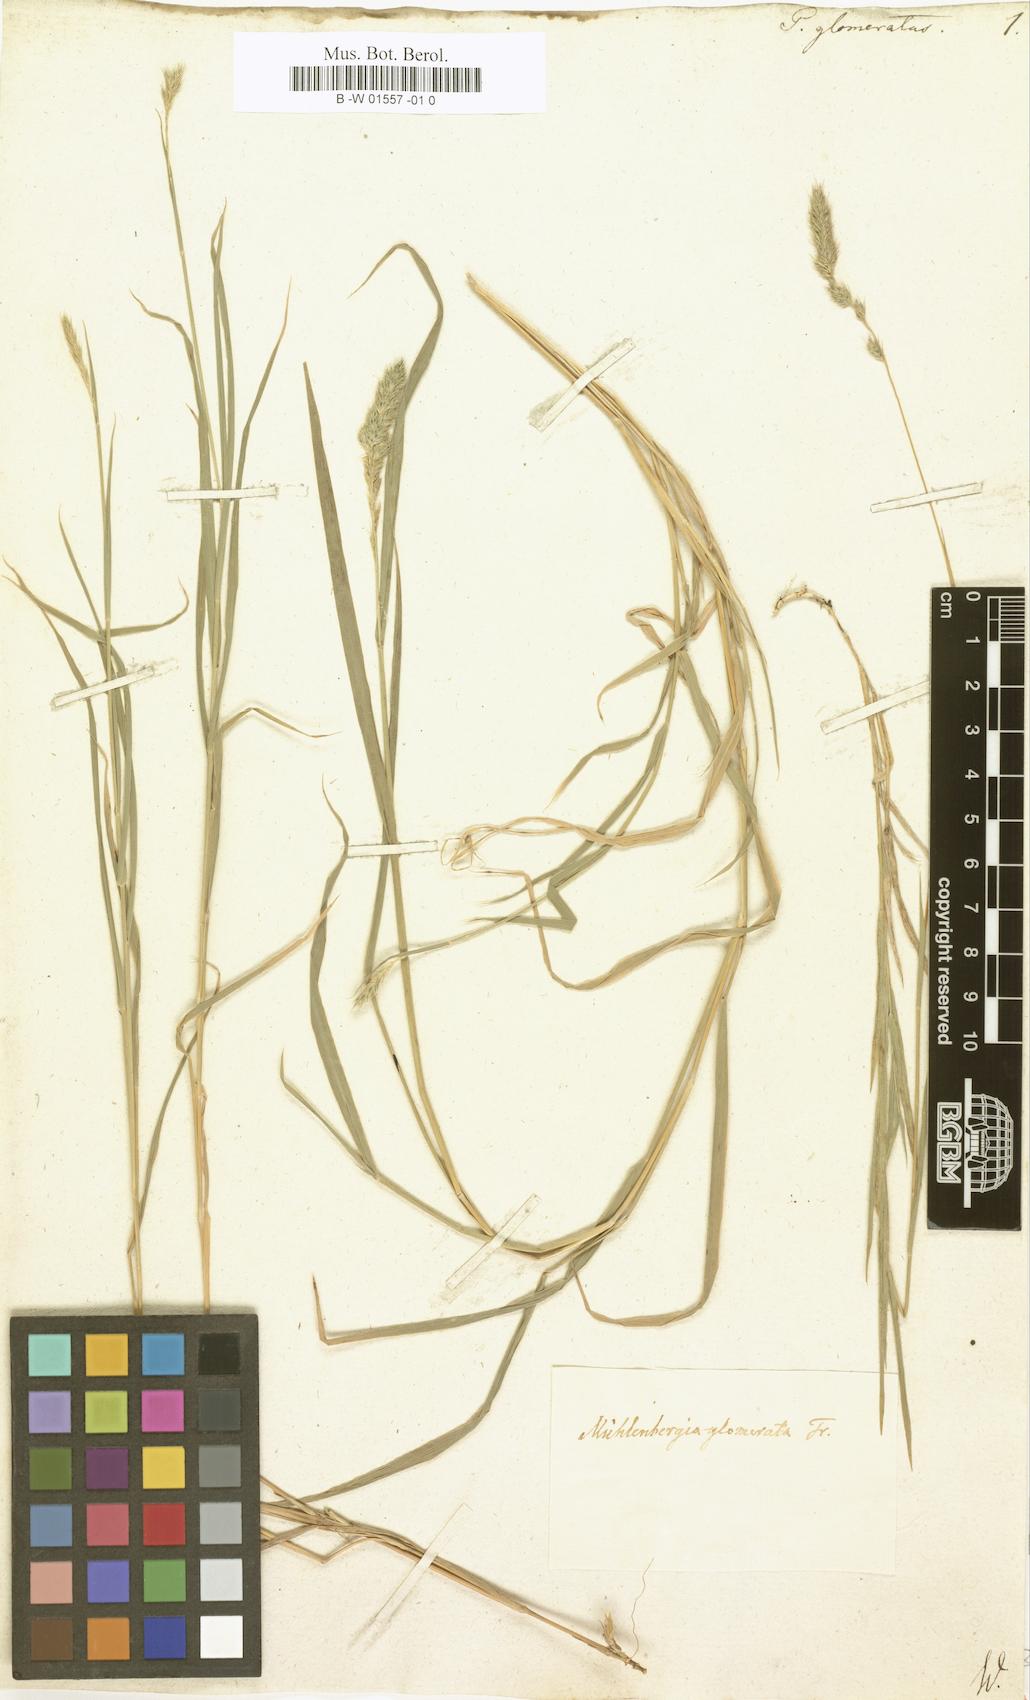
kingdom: Plantae
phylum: Tracheophyta
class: Liliopsida
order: Poales
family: Poaceae
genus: Muhlenbergia
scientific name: Muhlenbergia glomerata
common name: Bog muhly
